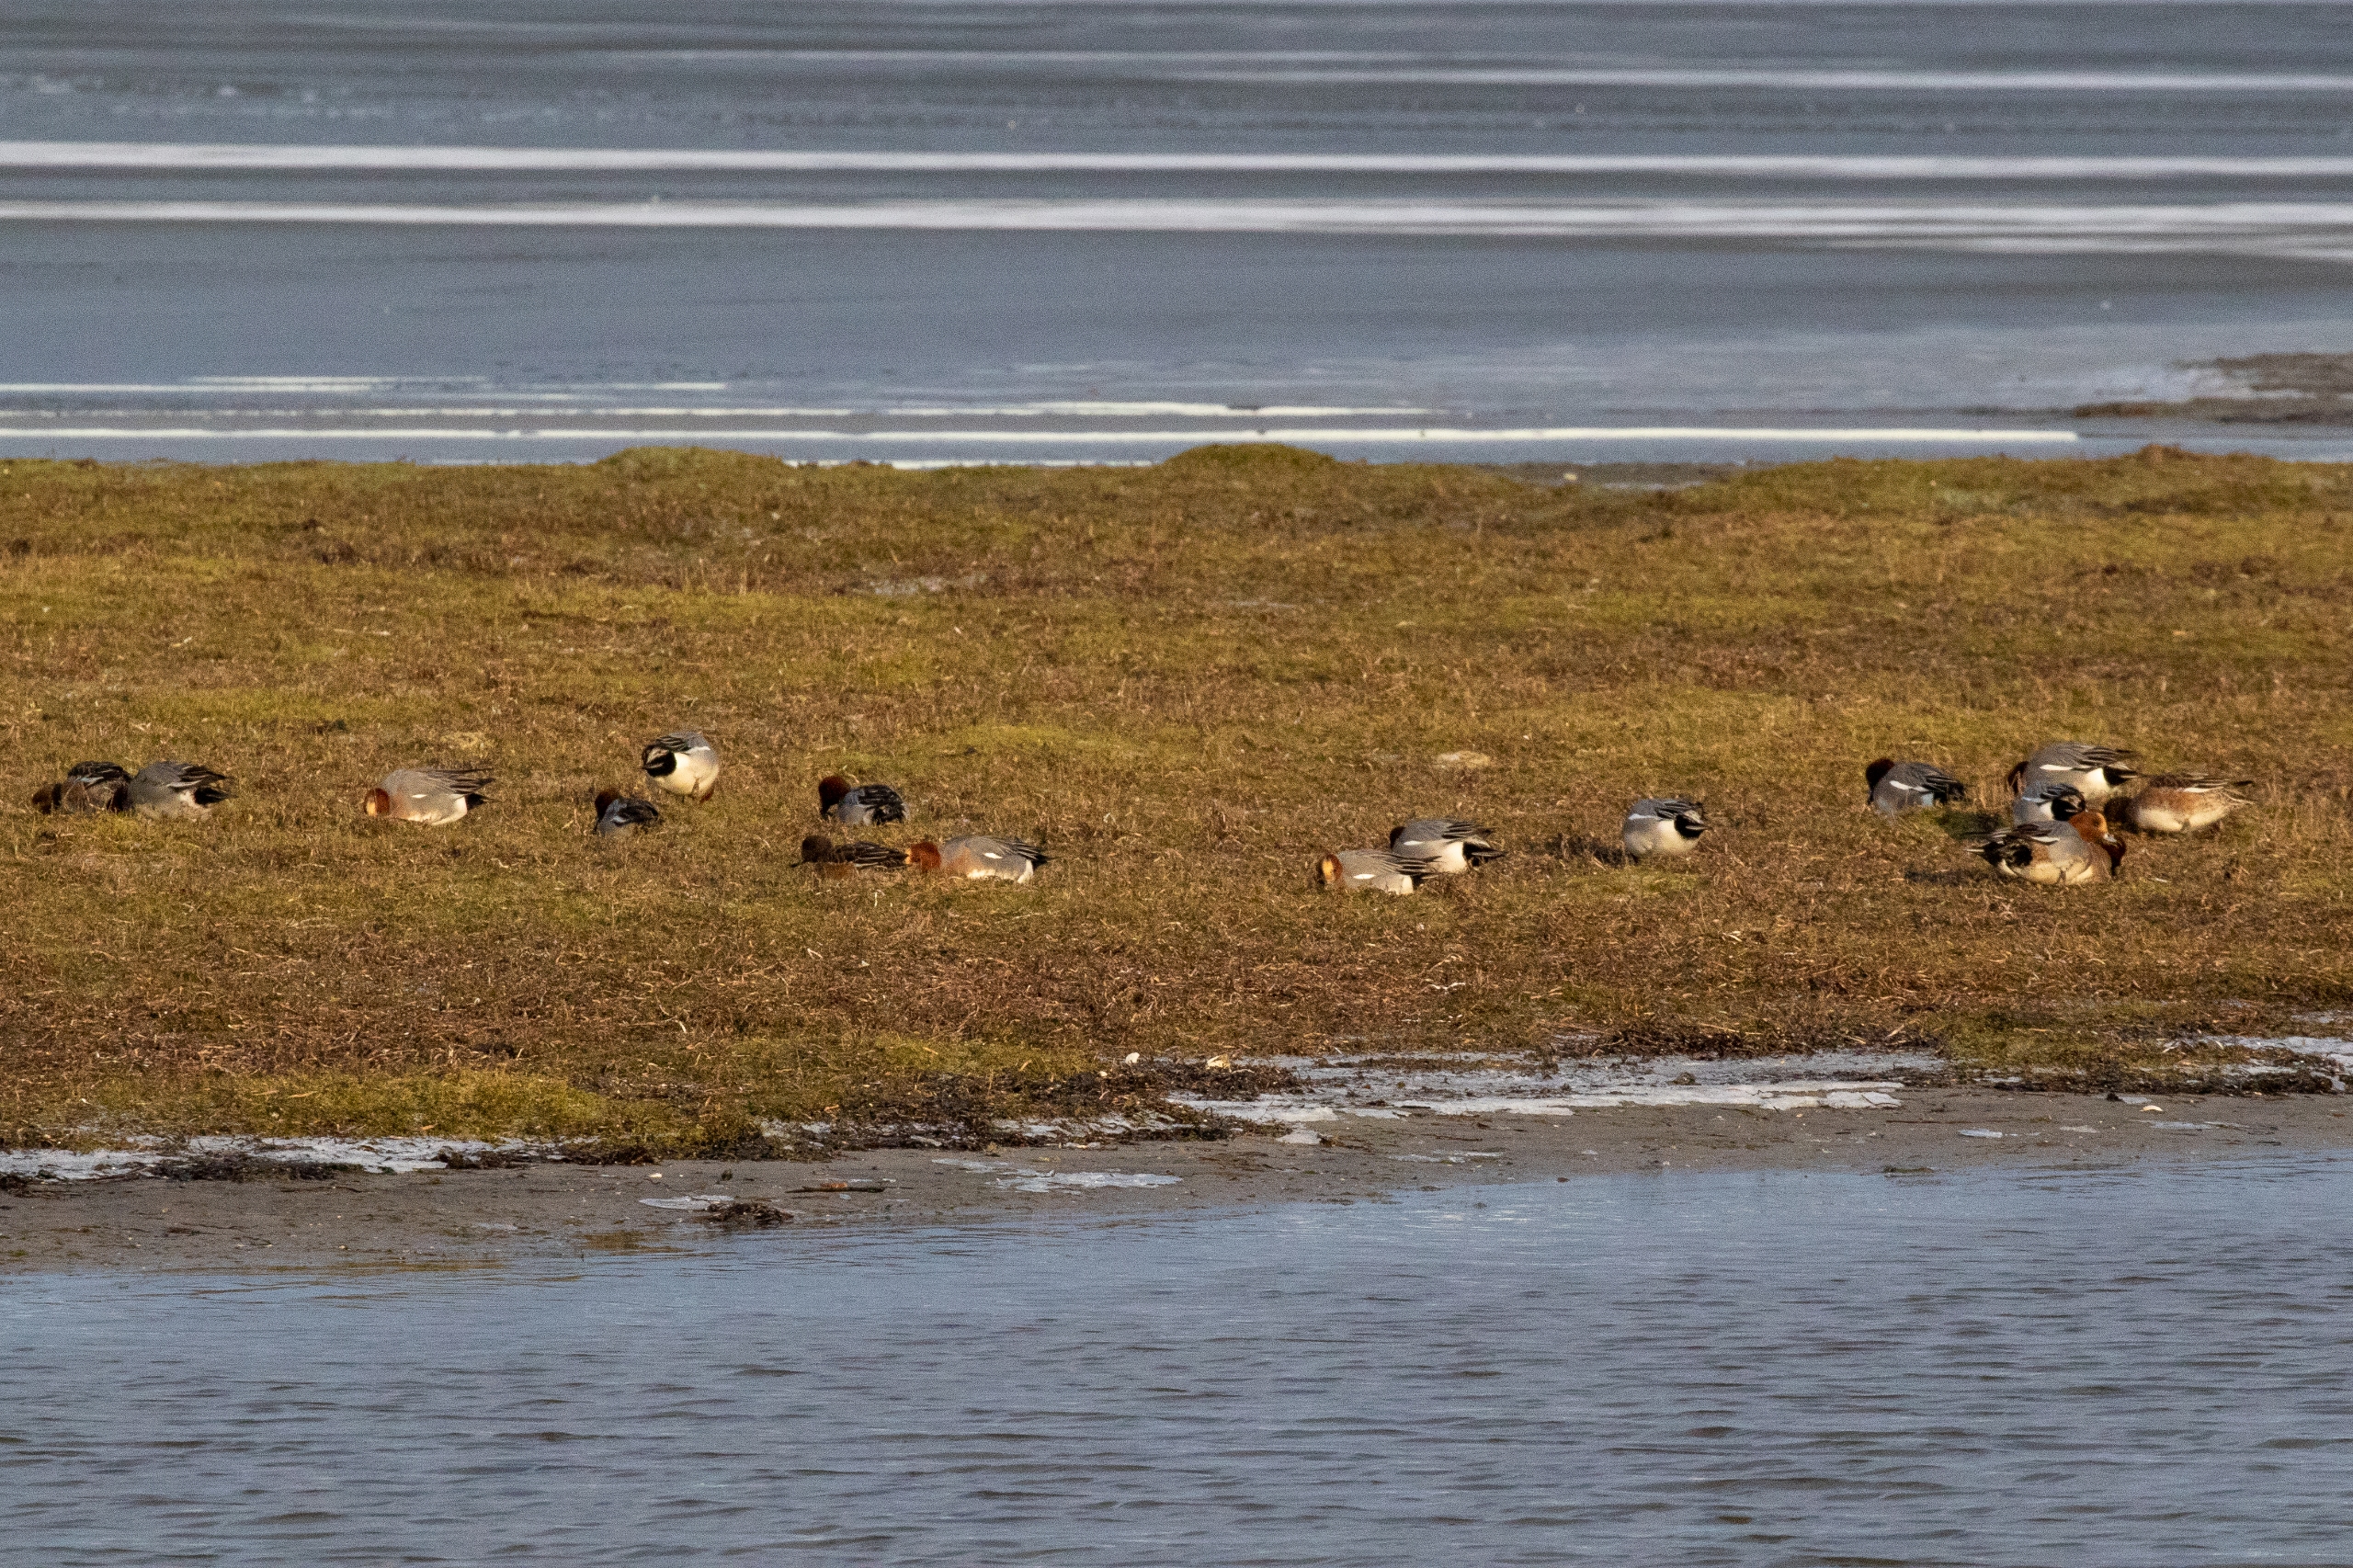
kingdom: Animalia
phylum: Chordata
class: Aves
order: Anseriformes
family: Anatidae
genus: Mareca
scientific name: Mareca penelope
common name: Pibeand
